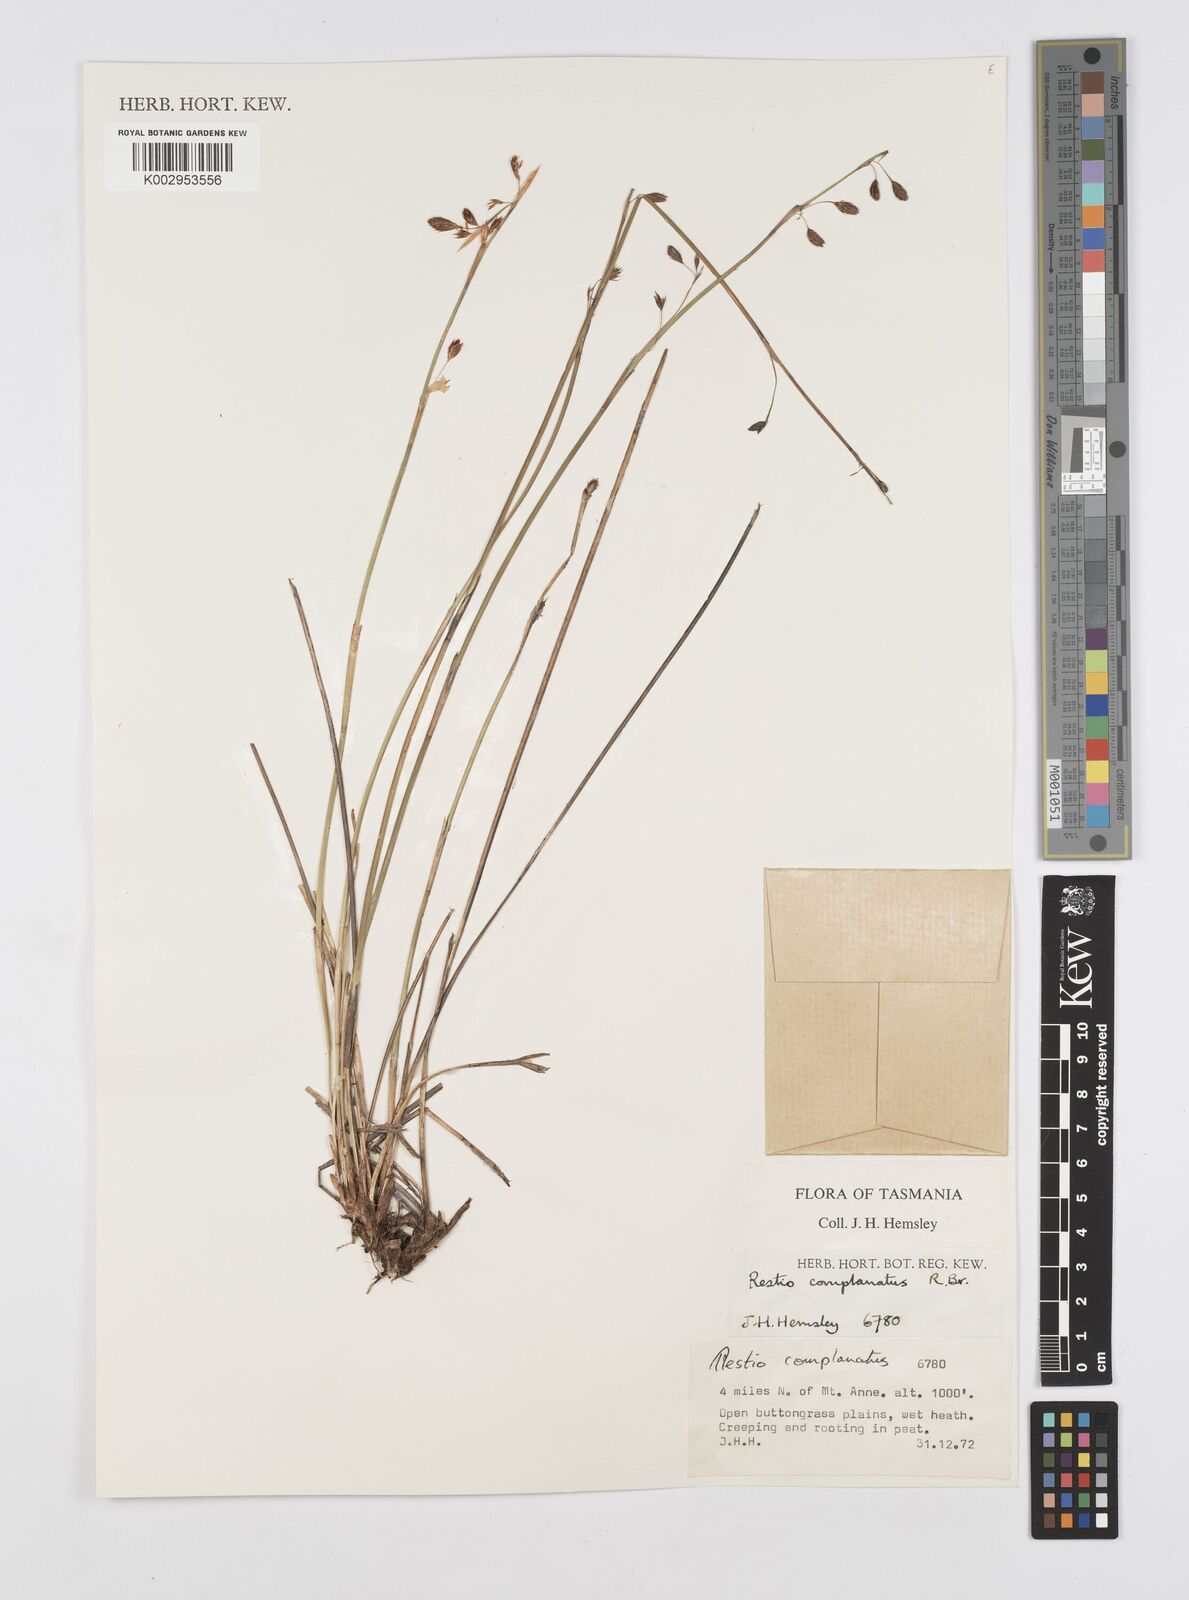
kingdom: Plantae
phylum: Tracheophyta
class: Liliopsida
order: Poales
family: Restionaceae
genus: Eurychorda
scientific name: Eurychorda complanata
